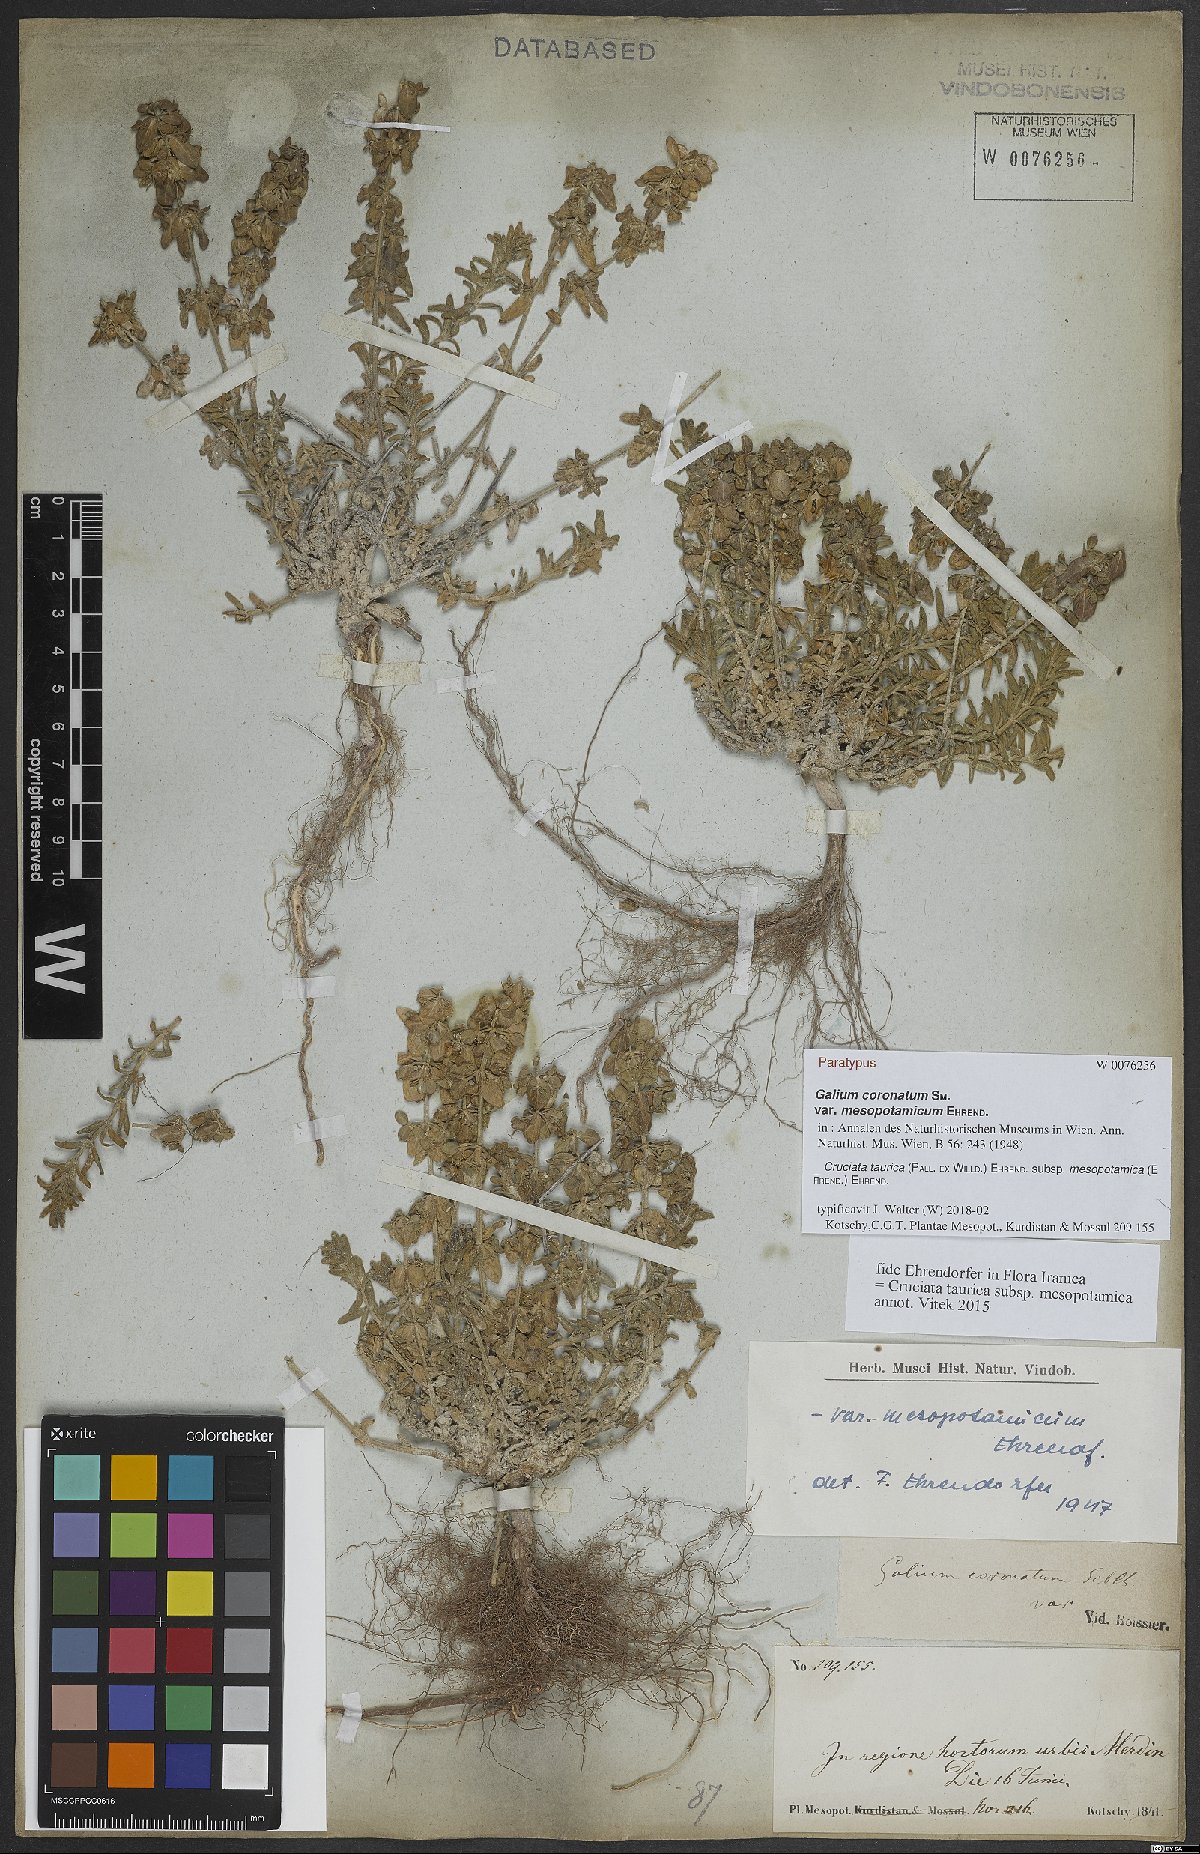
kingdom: Plantae
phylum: Tracheophyta
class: Magnoliopsida
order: Gentianales
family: Rubiaceae
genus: Cruciata
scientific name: Cruciata taurica
